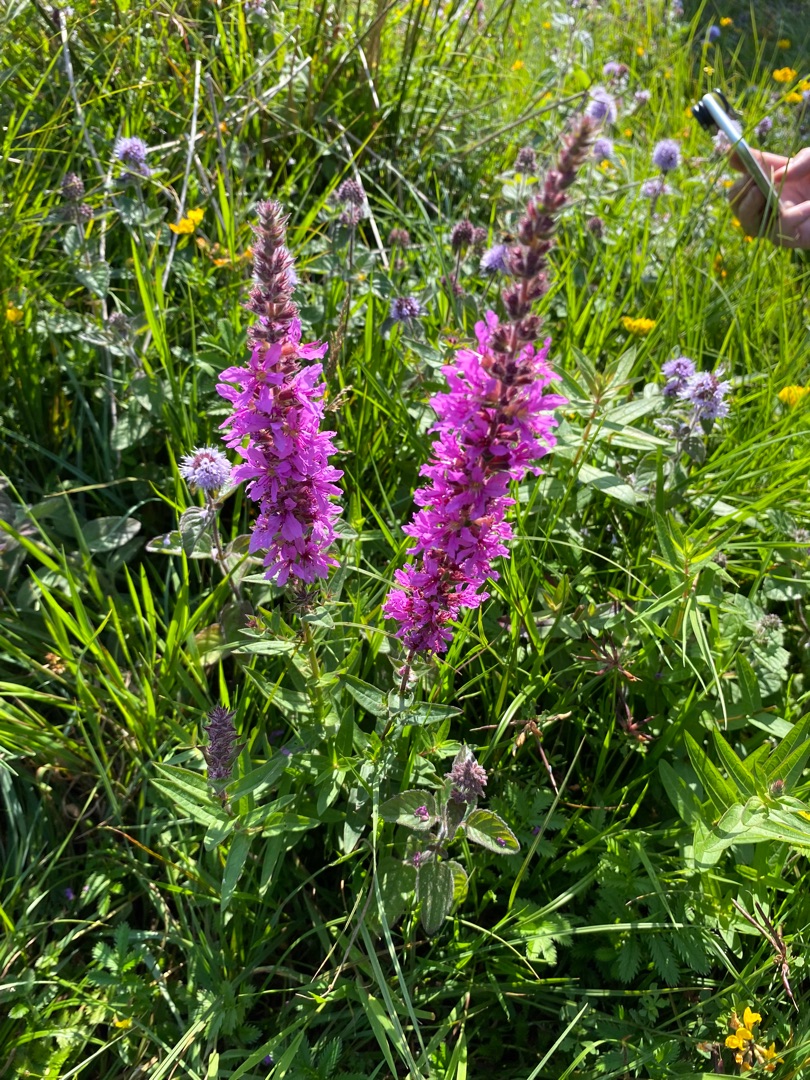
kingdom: Plantae
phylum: Tracheophyta
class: Magnoliopsida
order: Myrtales
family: Lythraceae
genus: Lythrum
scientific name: Lythrum salicaria
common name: Kattehale
